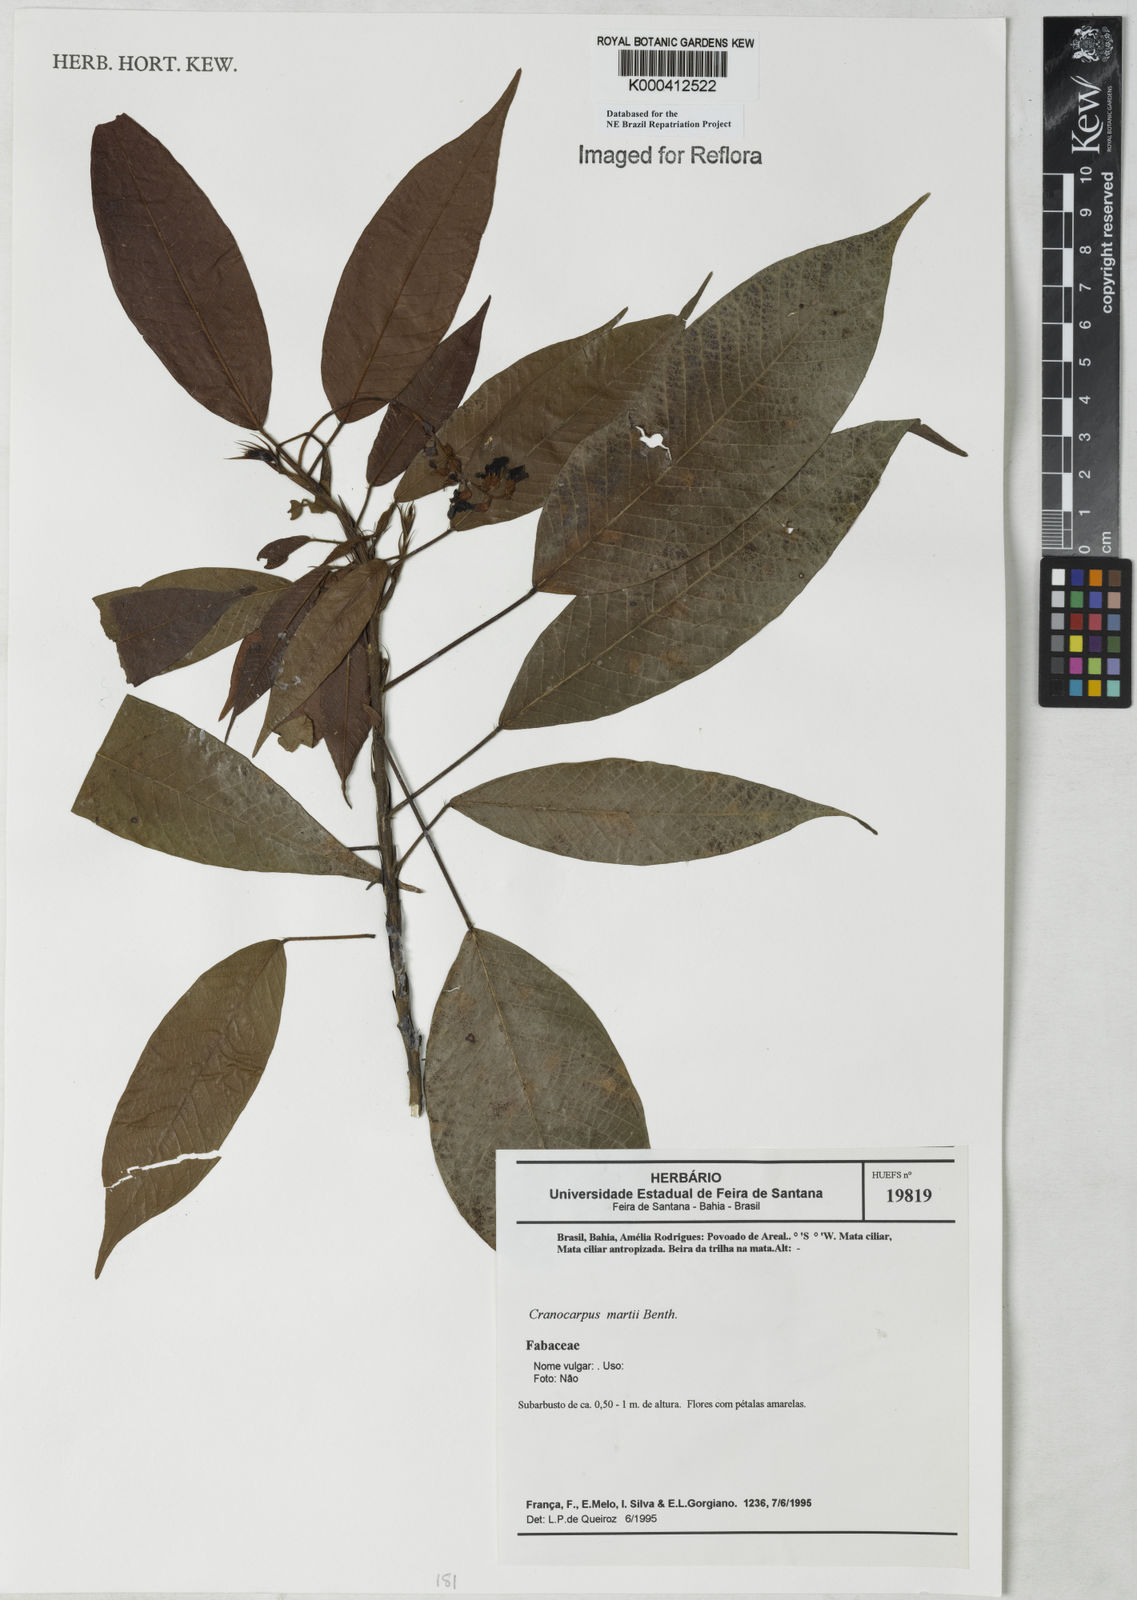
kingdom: Plantae
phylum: Tracheophyta
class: Magnoliopsida
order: Fabales
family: Fabaceae
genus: Cranocarpus
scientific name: Cranocarpus martii
